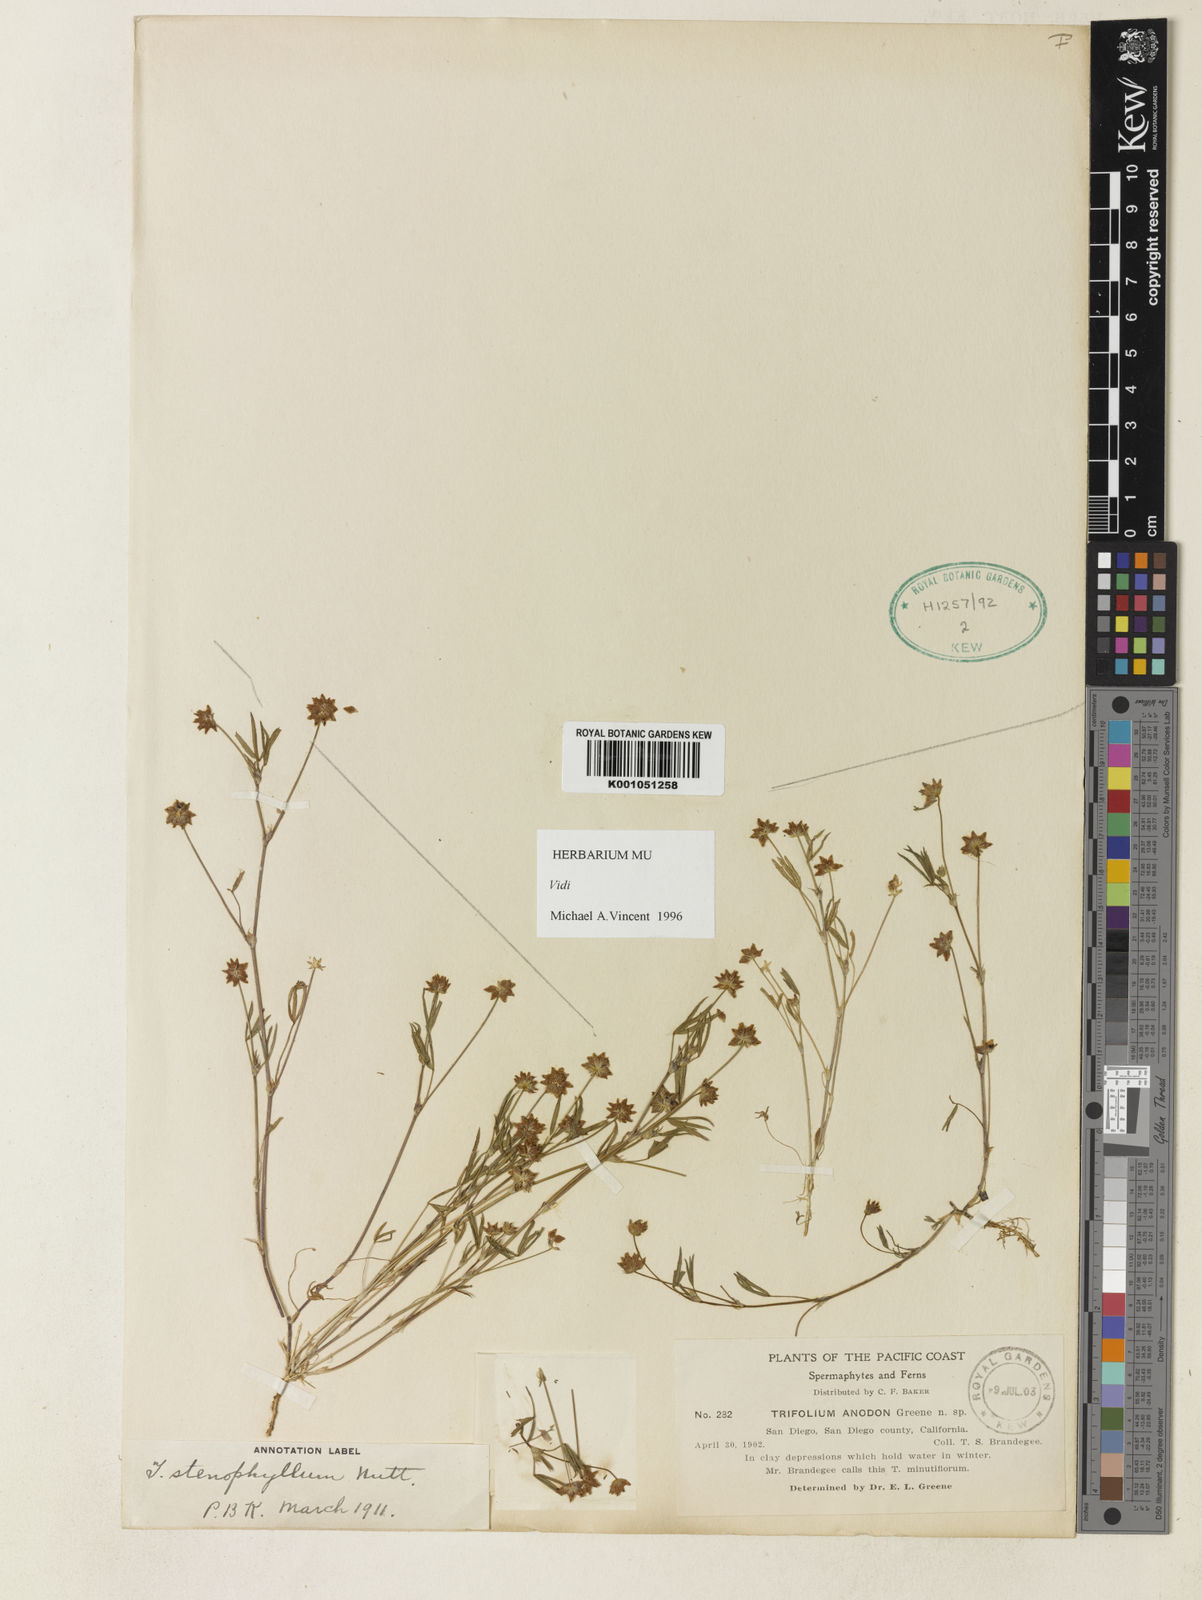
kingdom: Plantae
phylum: Tracheophyta
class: Magnoliopsida
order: Fabales
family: Fabaceae
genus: Trifolium
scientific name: Trifolium depauperatum
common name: Poverty clover
